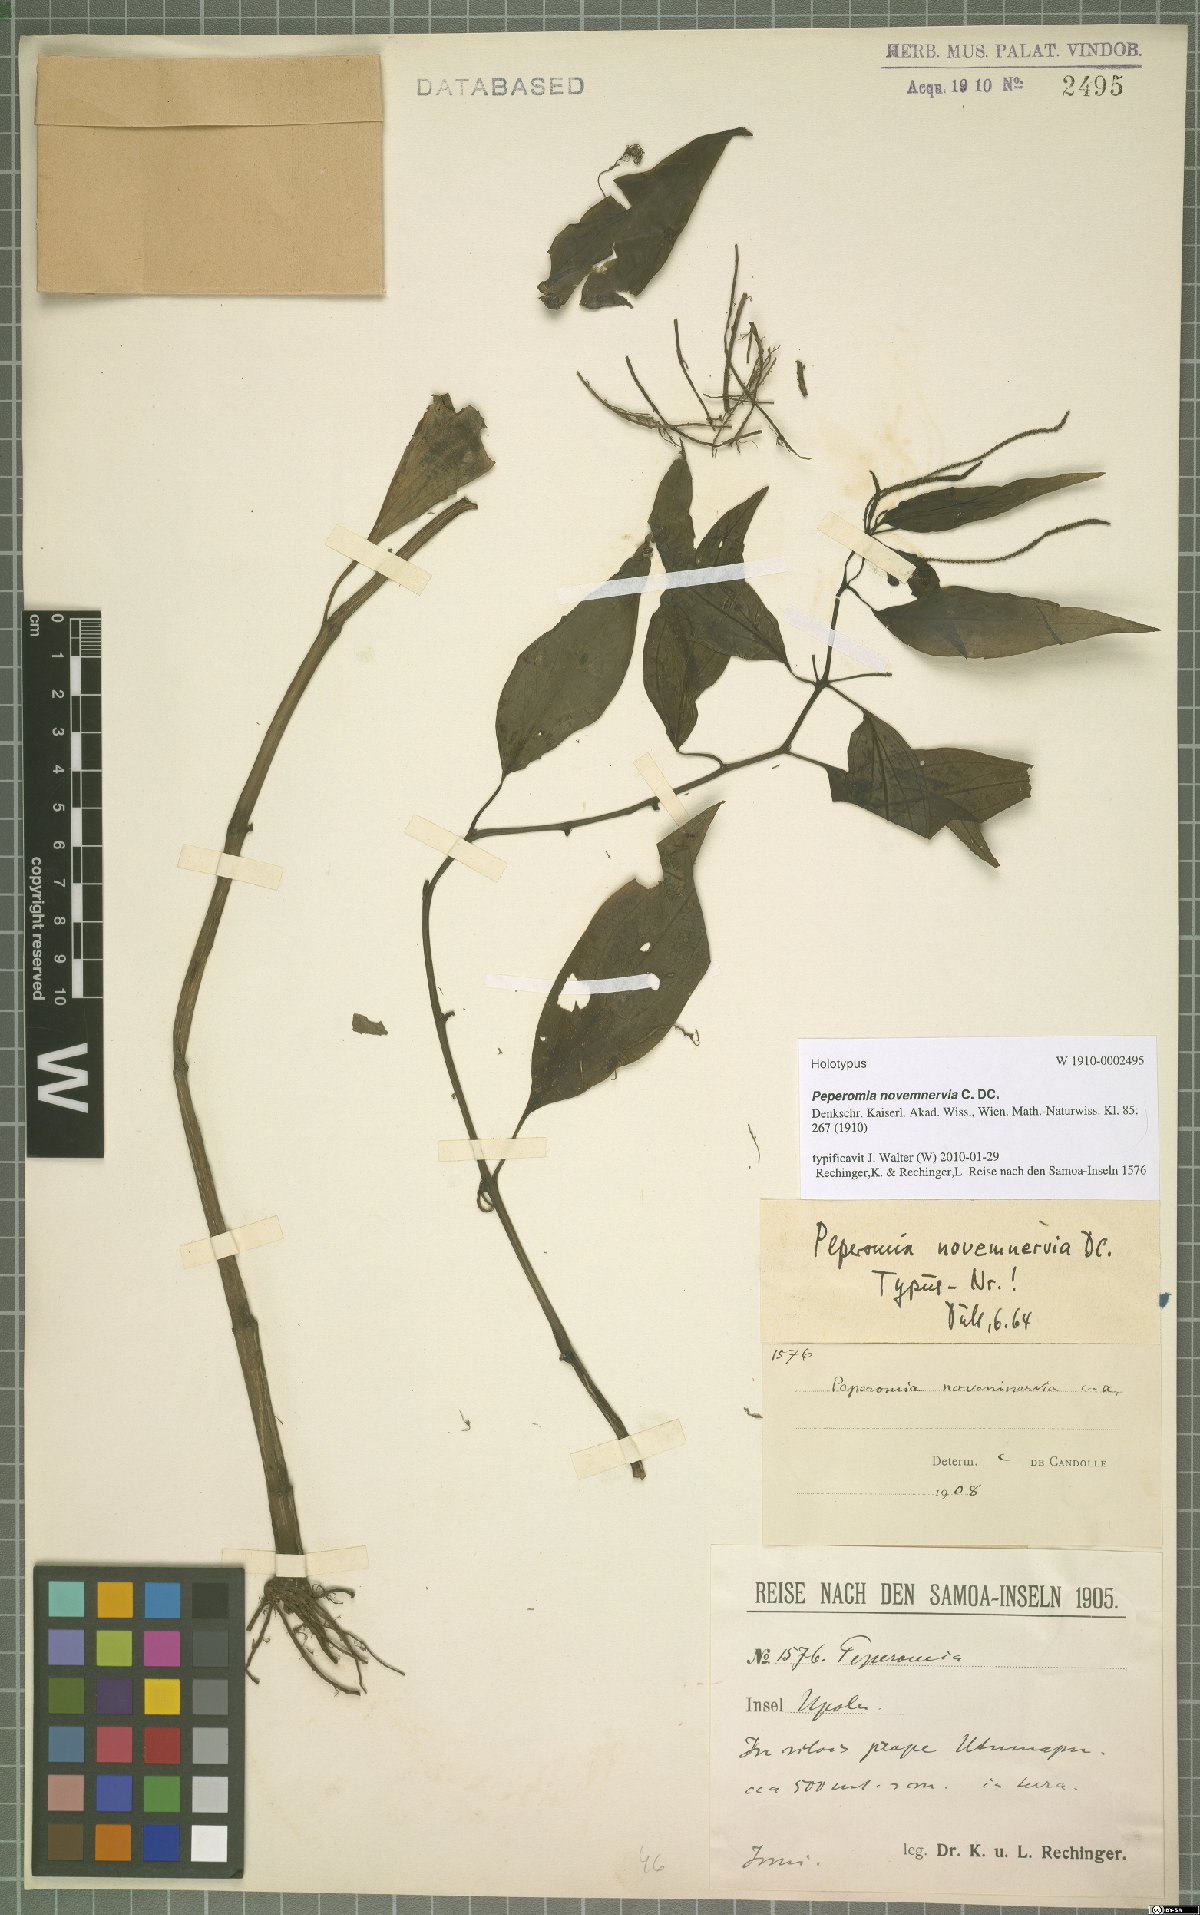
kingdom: Plantae
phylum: Tracheophyta
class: Magnoliopsida
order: Piperales
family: Piperaceae
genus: Peperomia
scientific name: Peperomia novemnervia
